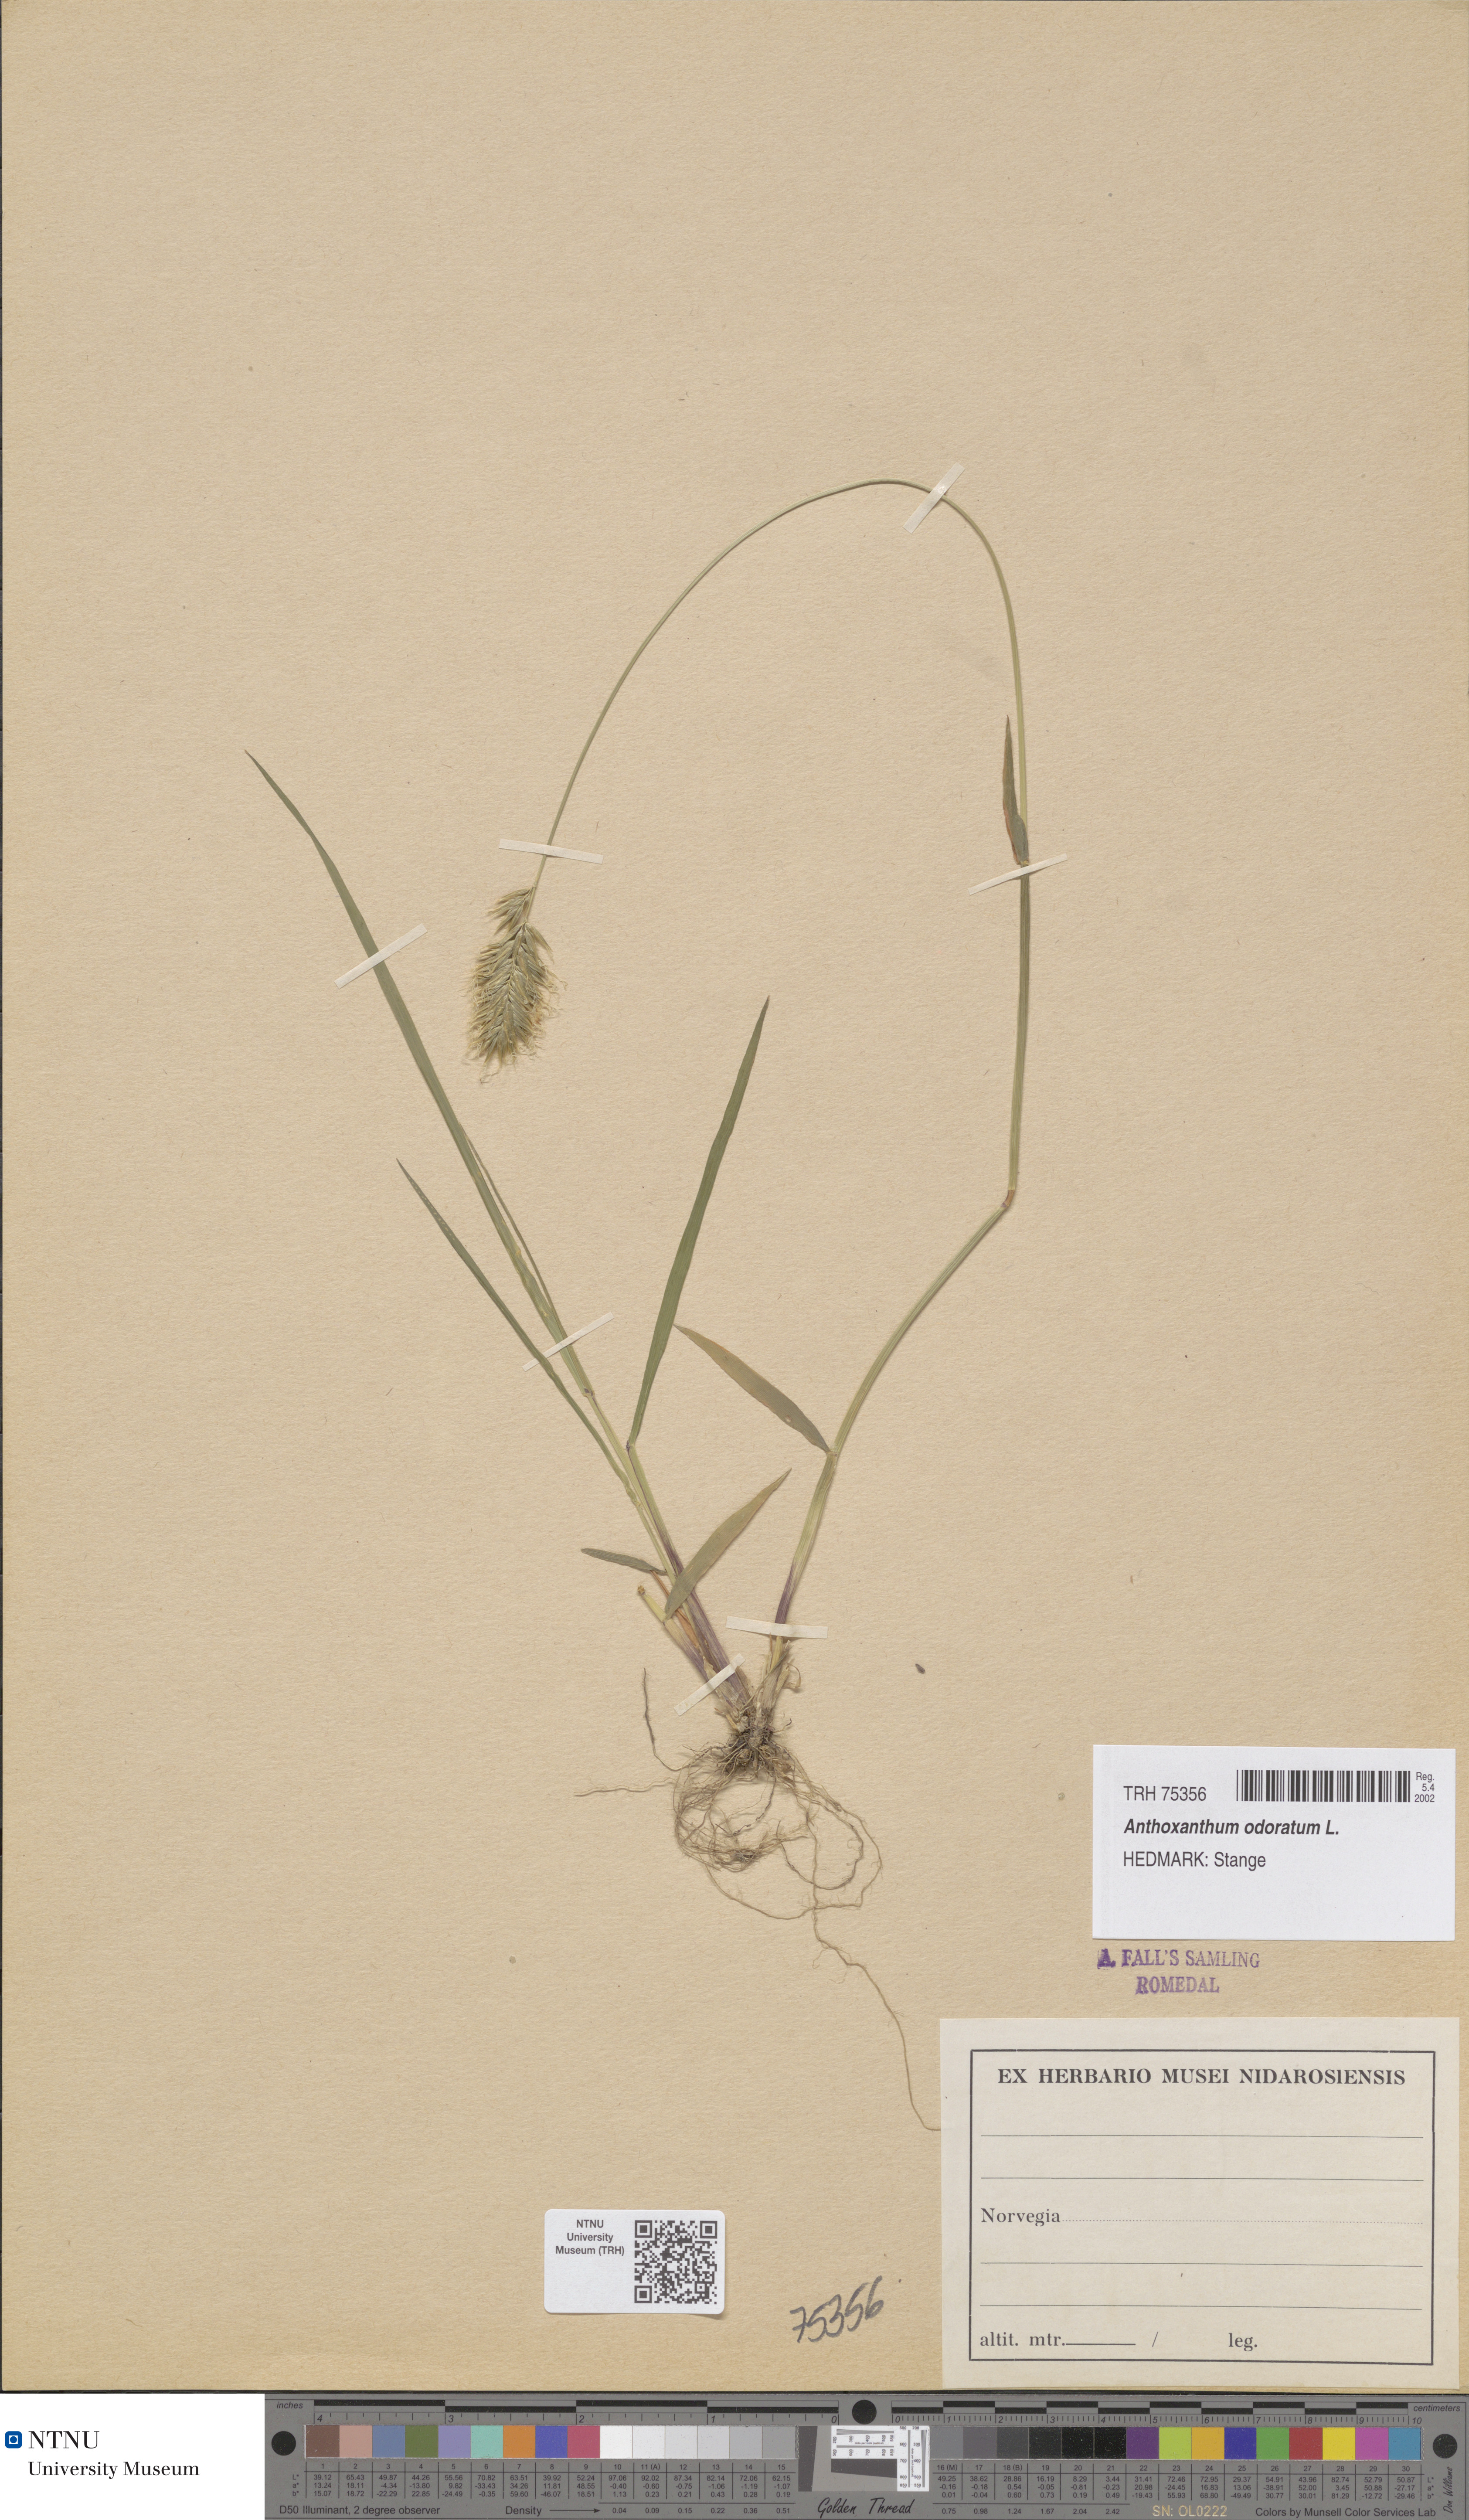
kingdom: Plantae
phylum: Tracheophyta
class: Liliopsida
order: Poales
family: Poaceae
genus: Anthoxanthum
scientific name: Anthoxanthum odoratum
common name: Sweet vernalgrass
